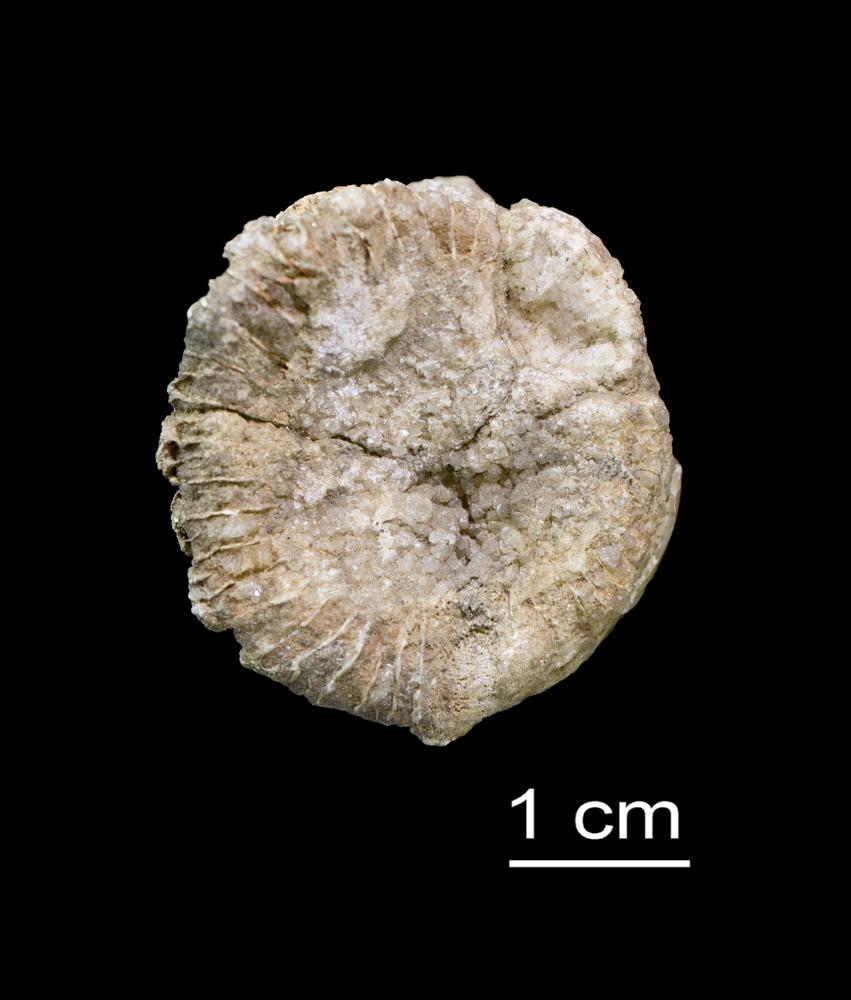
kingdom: Animalia
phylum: Cnidaria
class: Anthozoa
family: Streptelasmatidae
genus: Streptelasma
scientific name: Streptelasma corniculum
